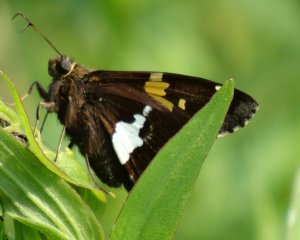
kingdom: Animalia
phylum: Arthropoda
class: Insecta
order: Lepidoptera
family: Hesperiidae
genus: Epargyreus
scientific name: Epargyreus clarus
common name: Silver-spotted Skipper
